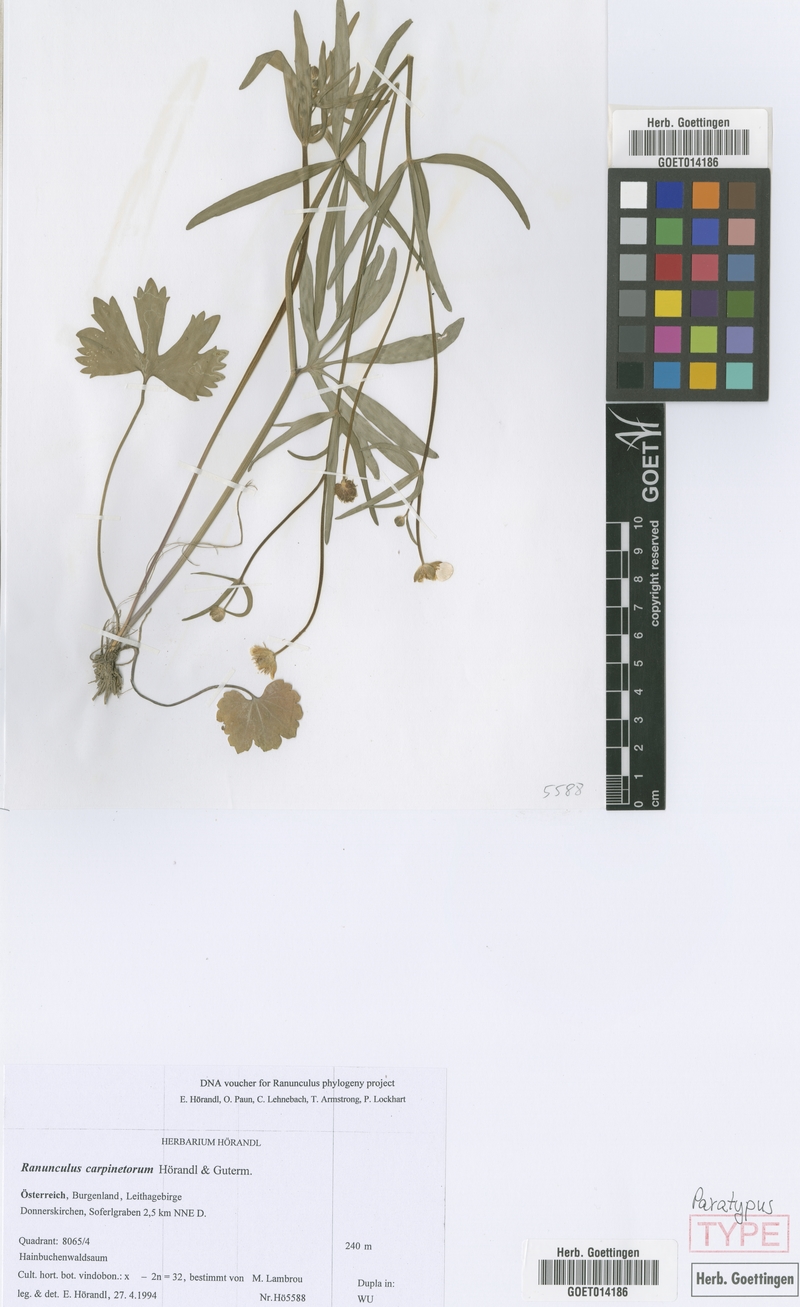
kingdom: Plantae
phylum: Tracheophyta
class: Magnoliopsida
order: Ranunculales
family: Ranunculaceae
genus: Ranunculus
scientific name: Ranunculus carpinetorum
